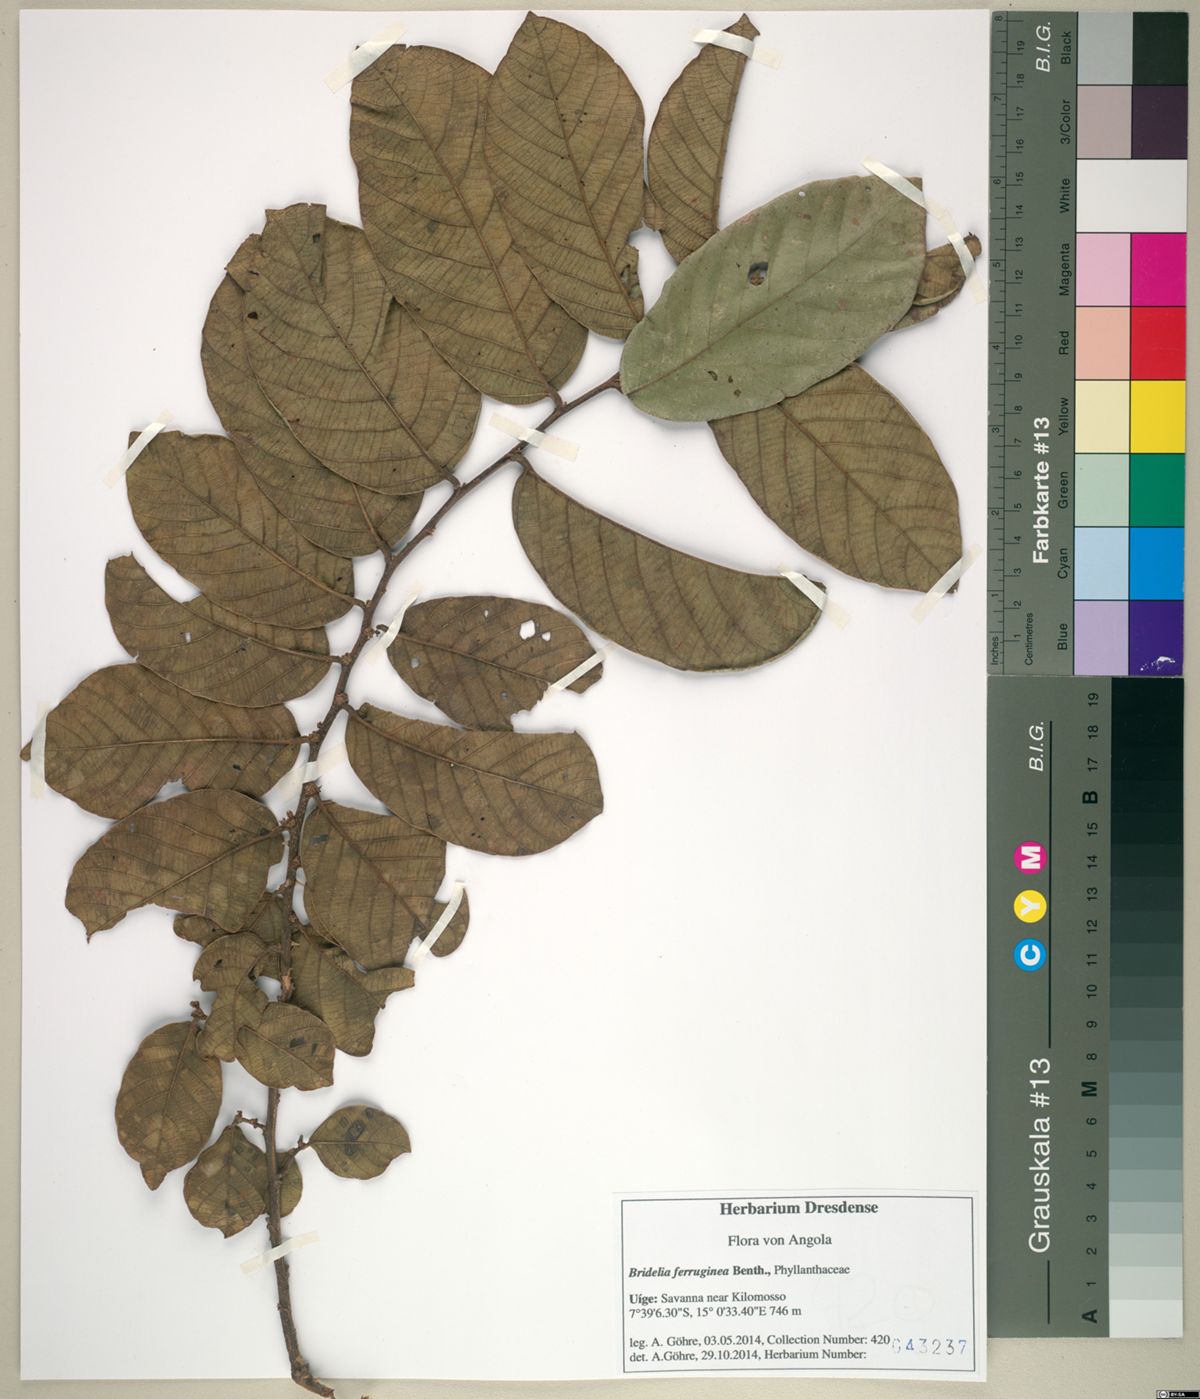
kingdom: Plantae
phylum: Tracheophyta
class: Magnoliopsida
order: Malpighiales
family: Phyllanthaceae
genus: Bridelia
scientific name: Bridelia ferruginea
